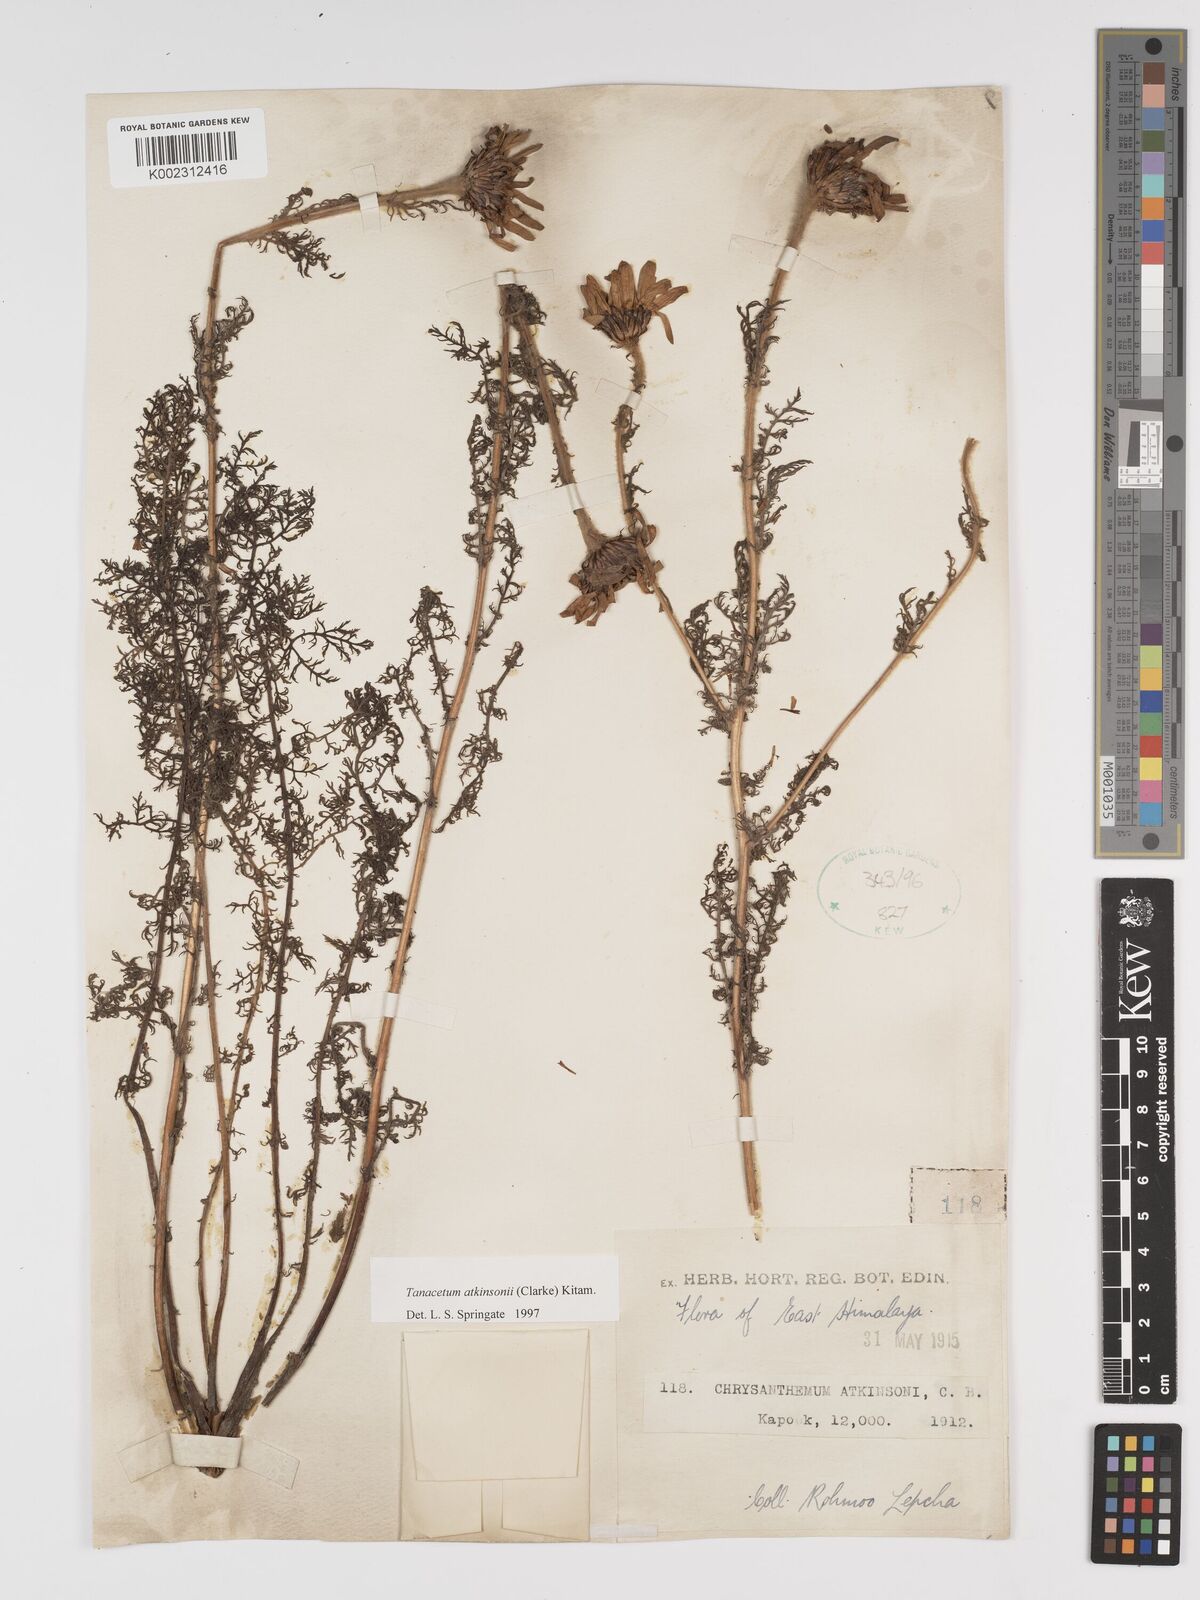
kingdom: Plantae
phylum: Tracheophyta
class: Magnoliopsida
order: Asterales
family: Asteraceae
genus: Tanacetum
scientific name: Tanacetum atkinsonii
